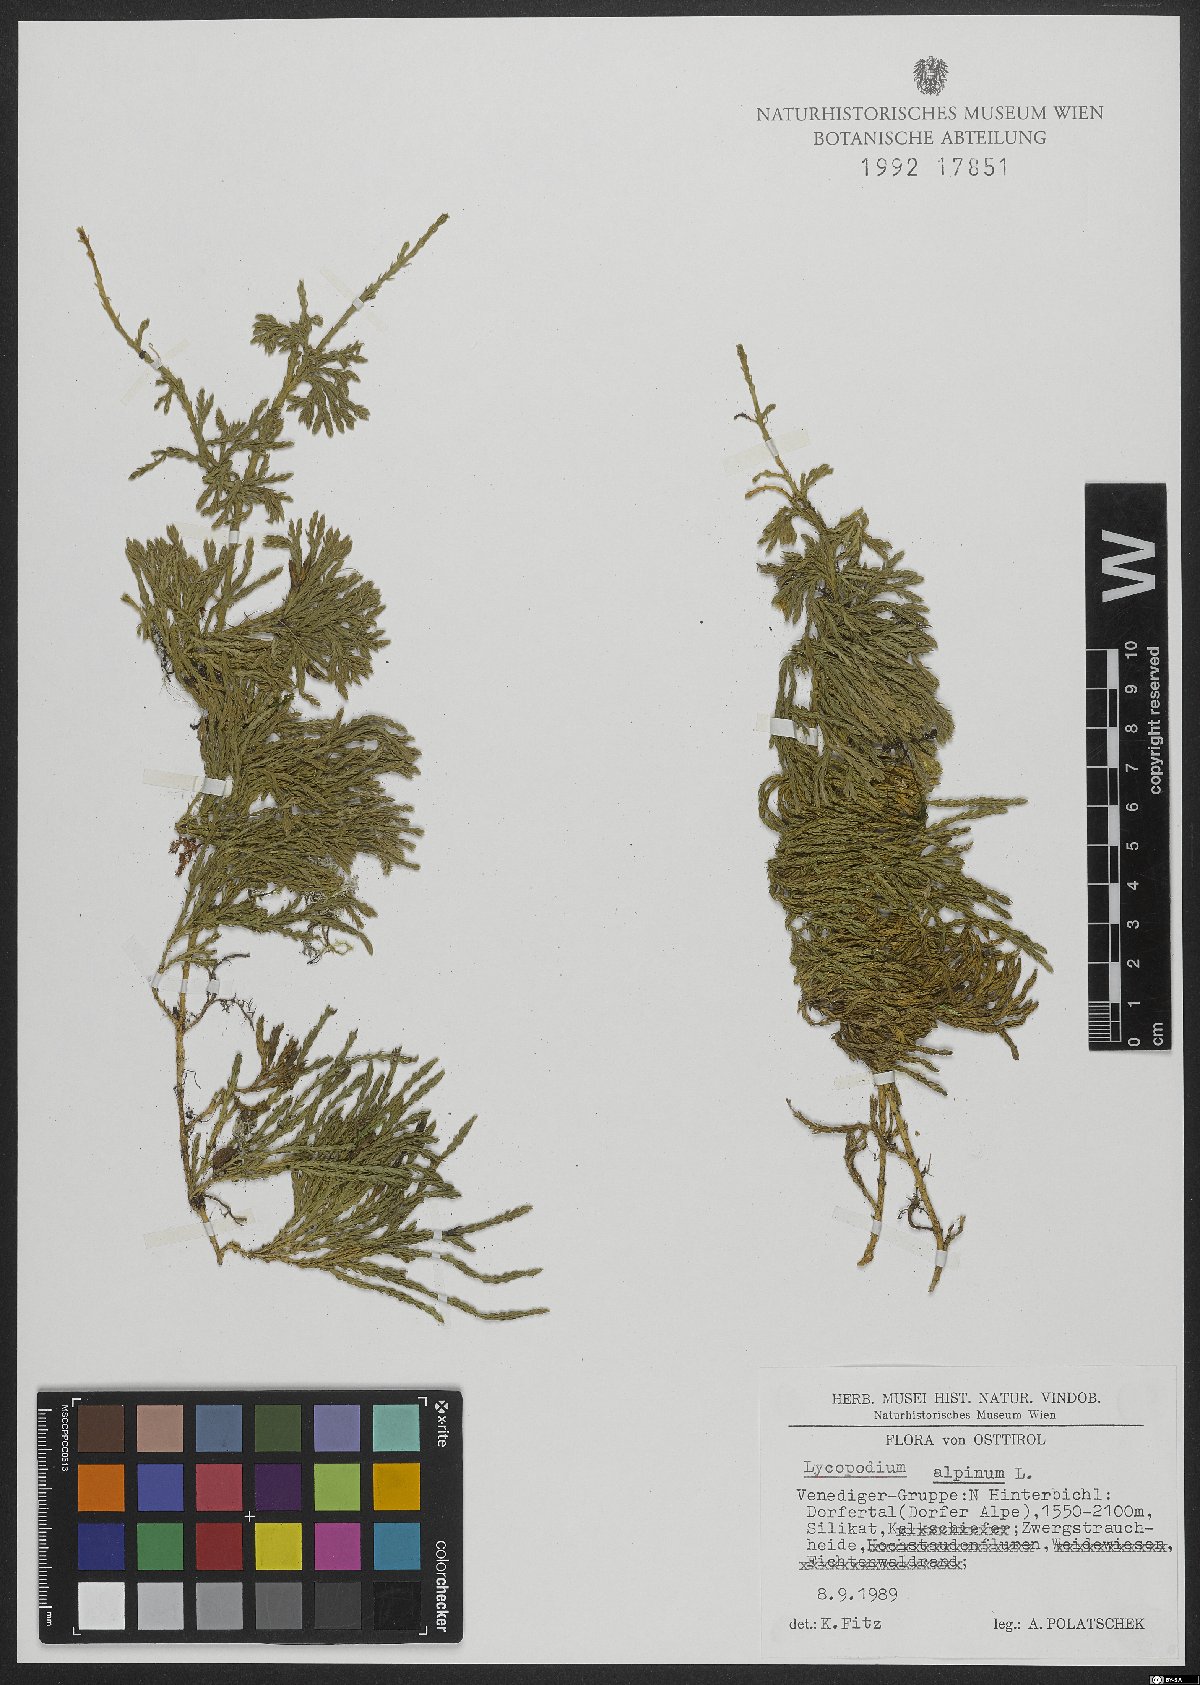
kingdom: Plantae
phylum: Tracheophyta
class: Lycopodiopsida
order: Lycopodiales
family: Lycopodiaceae
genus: Diphasiastrum
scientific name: Diphasiastrum alpinum
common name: Alpine clubmoss
